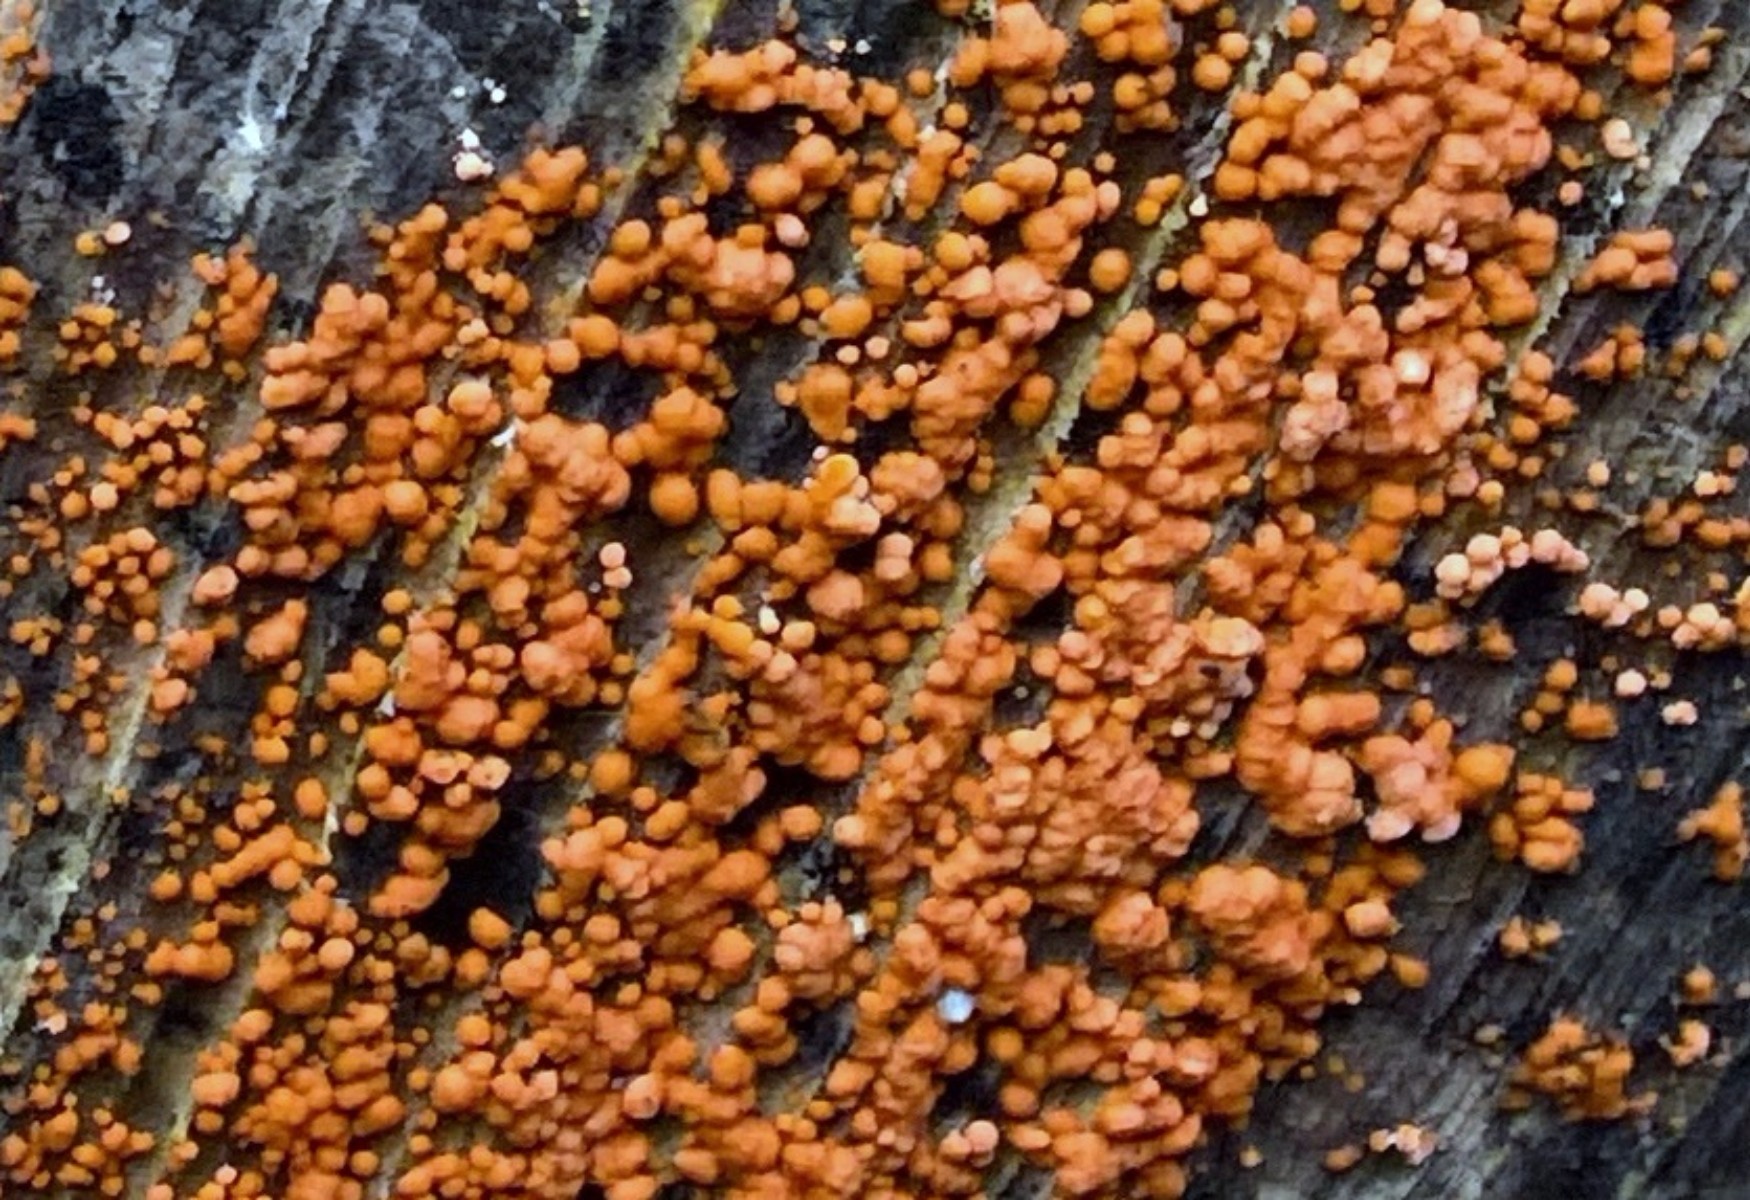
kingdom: Fungi
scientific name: Fungi
